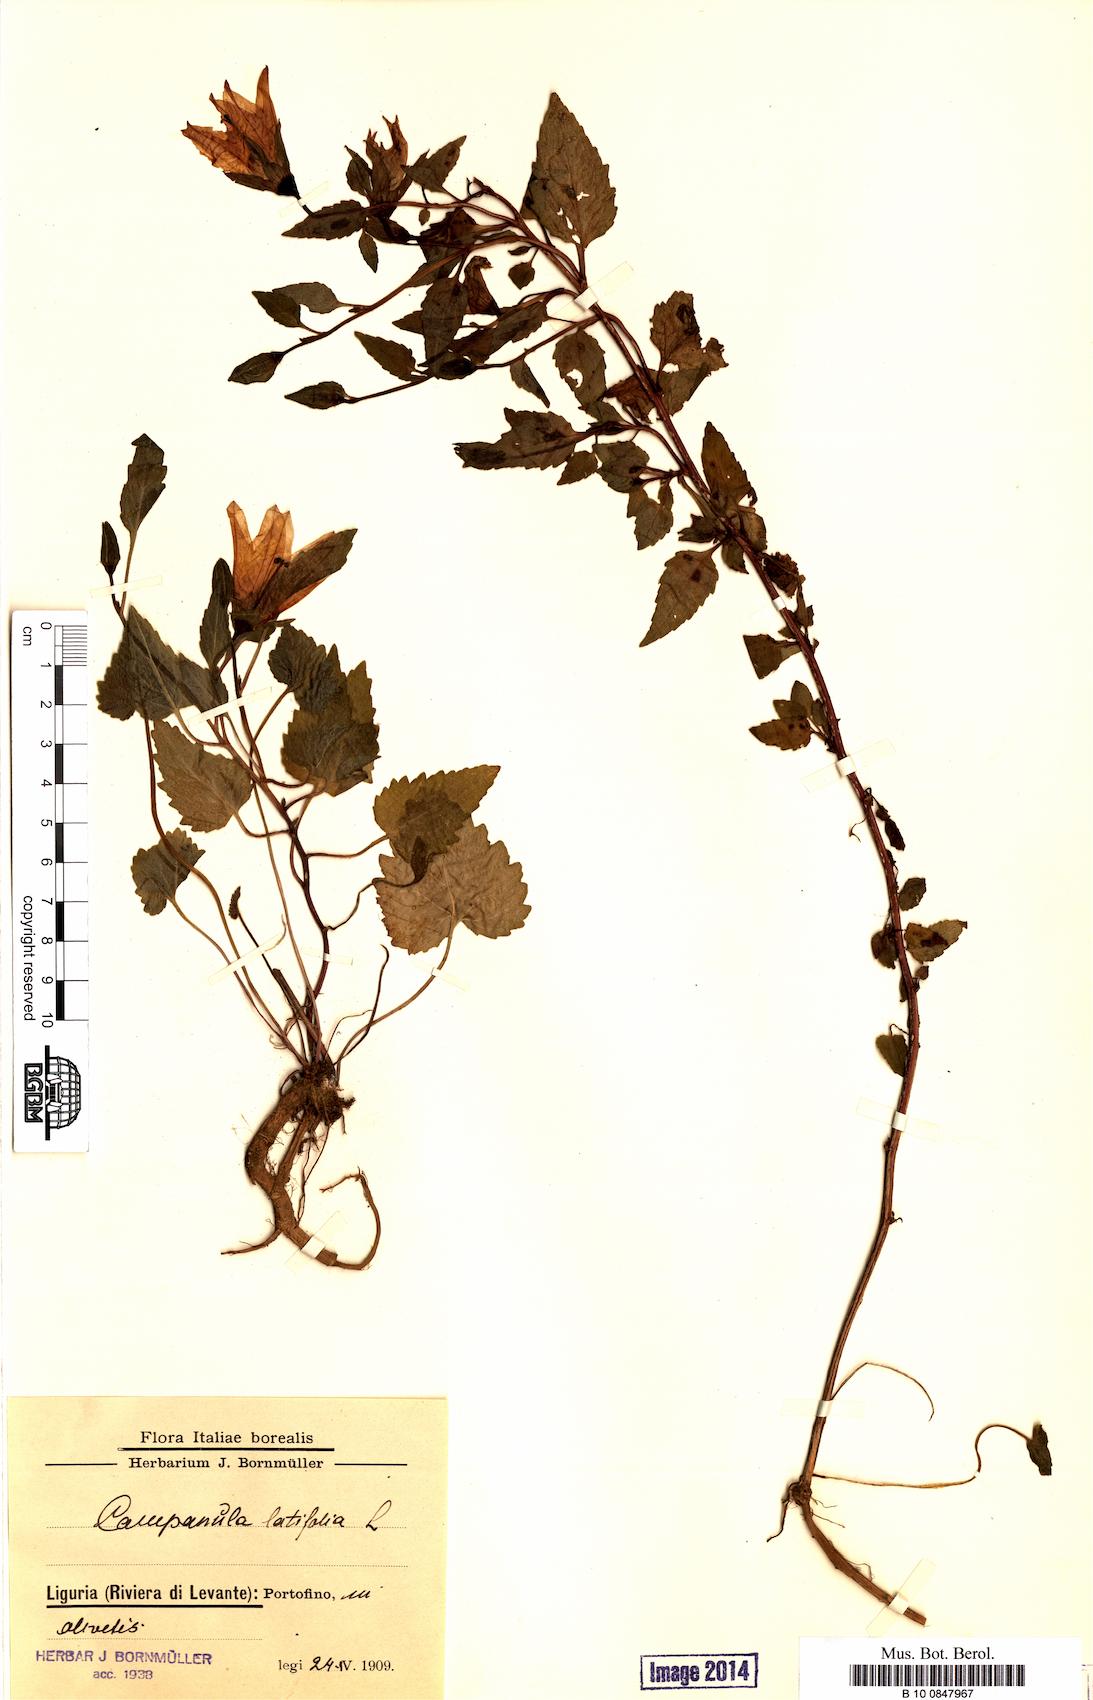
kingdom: Plantae
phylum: Tracheophyta
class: Magnoliopsida
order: Asterales
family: Campanulaceae
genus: Campanula
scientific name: Campanula latifolia
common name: Giant bellflower
